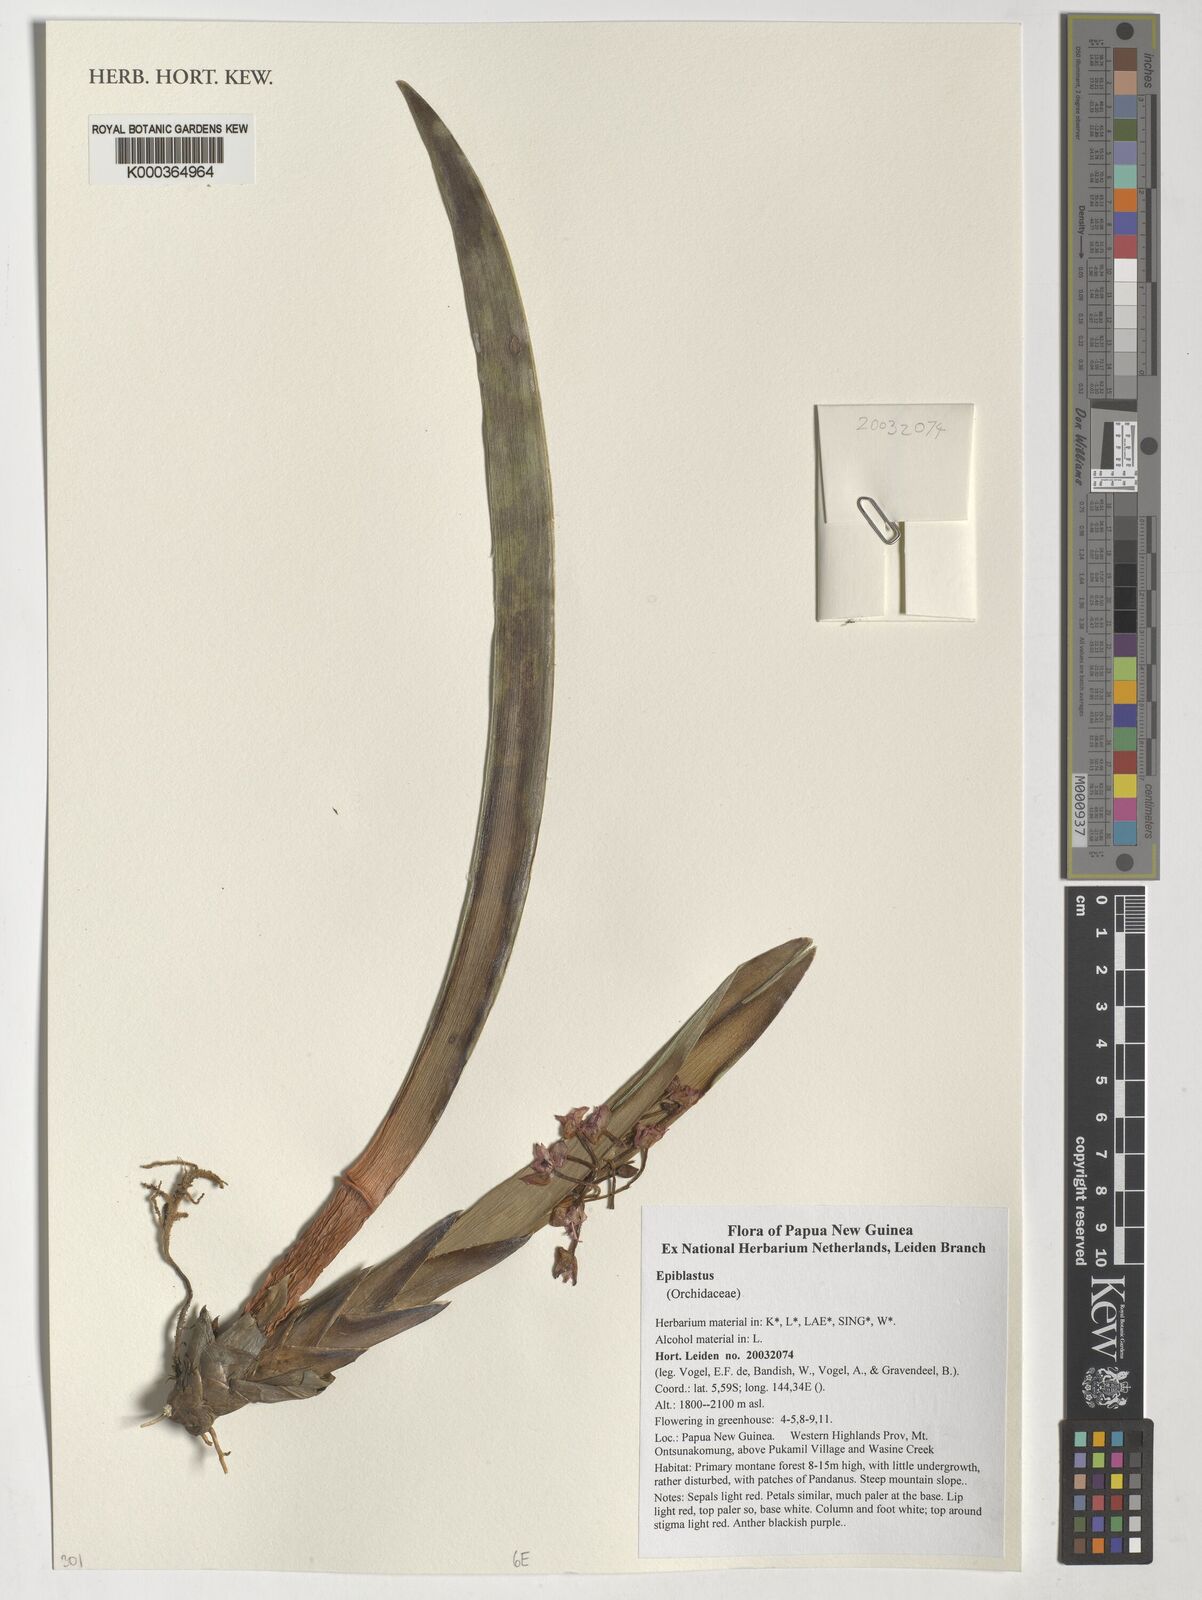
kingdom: Plantae
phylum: Tracheophyta
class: Liliopsida
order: Asparagales
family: Orchidaceae
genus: Epiblastus
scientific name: Epiblastus
